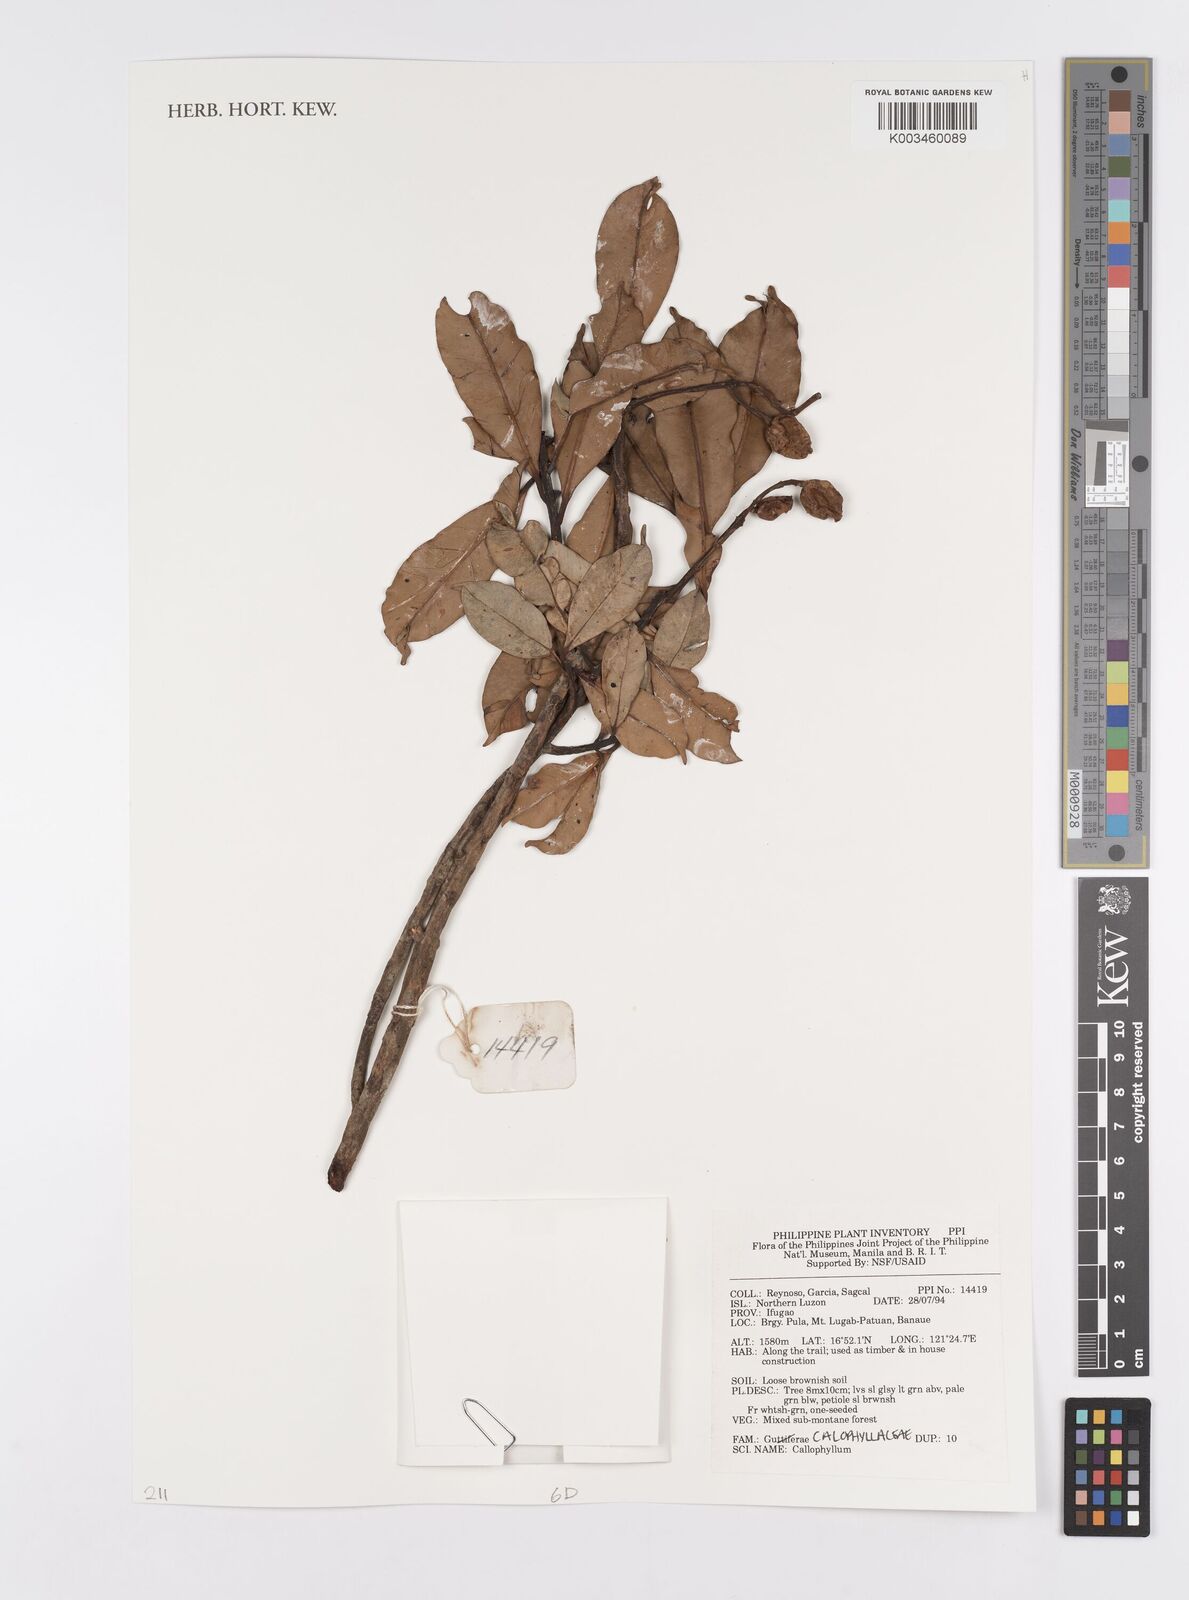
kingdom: Plantae
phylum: Tracheophyta
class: Magnoliopsida
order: Malpighiales
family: Calophyllaceae
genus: Calophyllum
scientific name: Calophyllum
